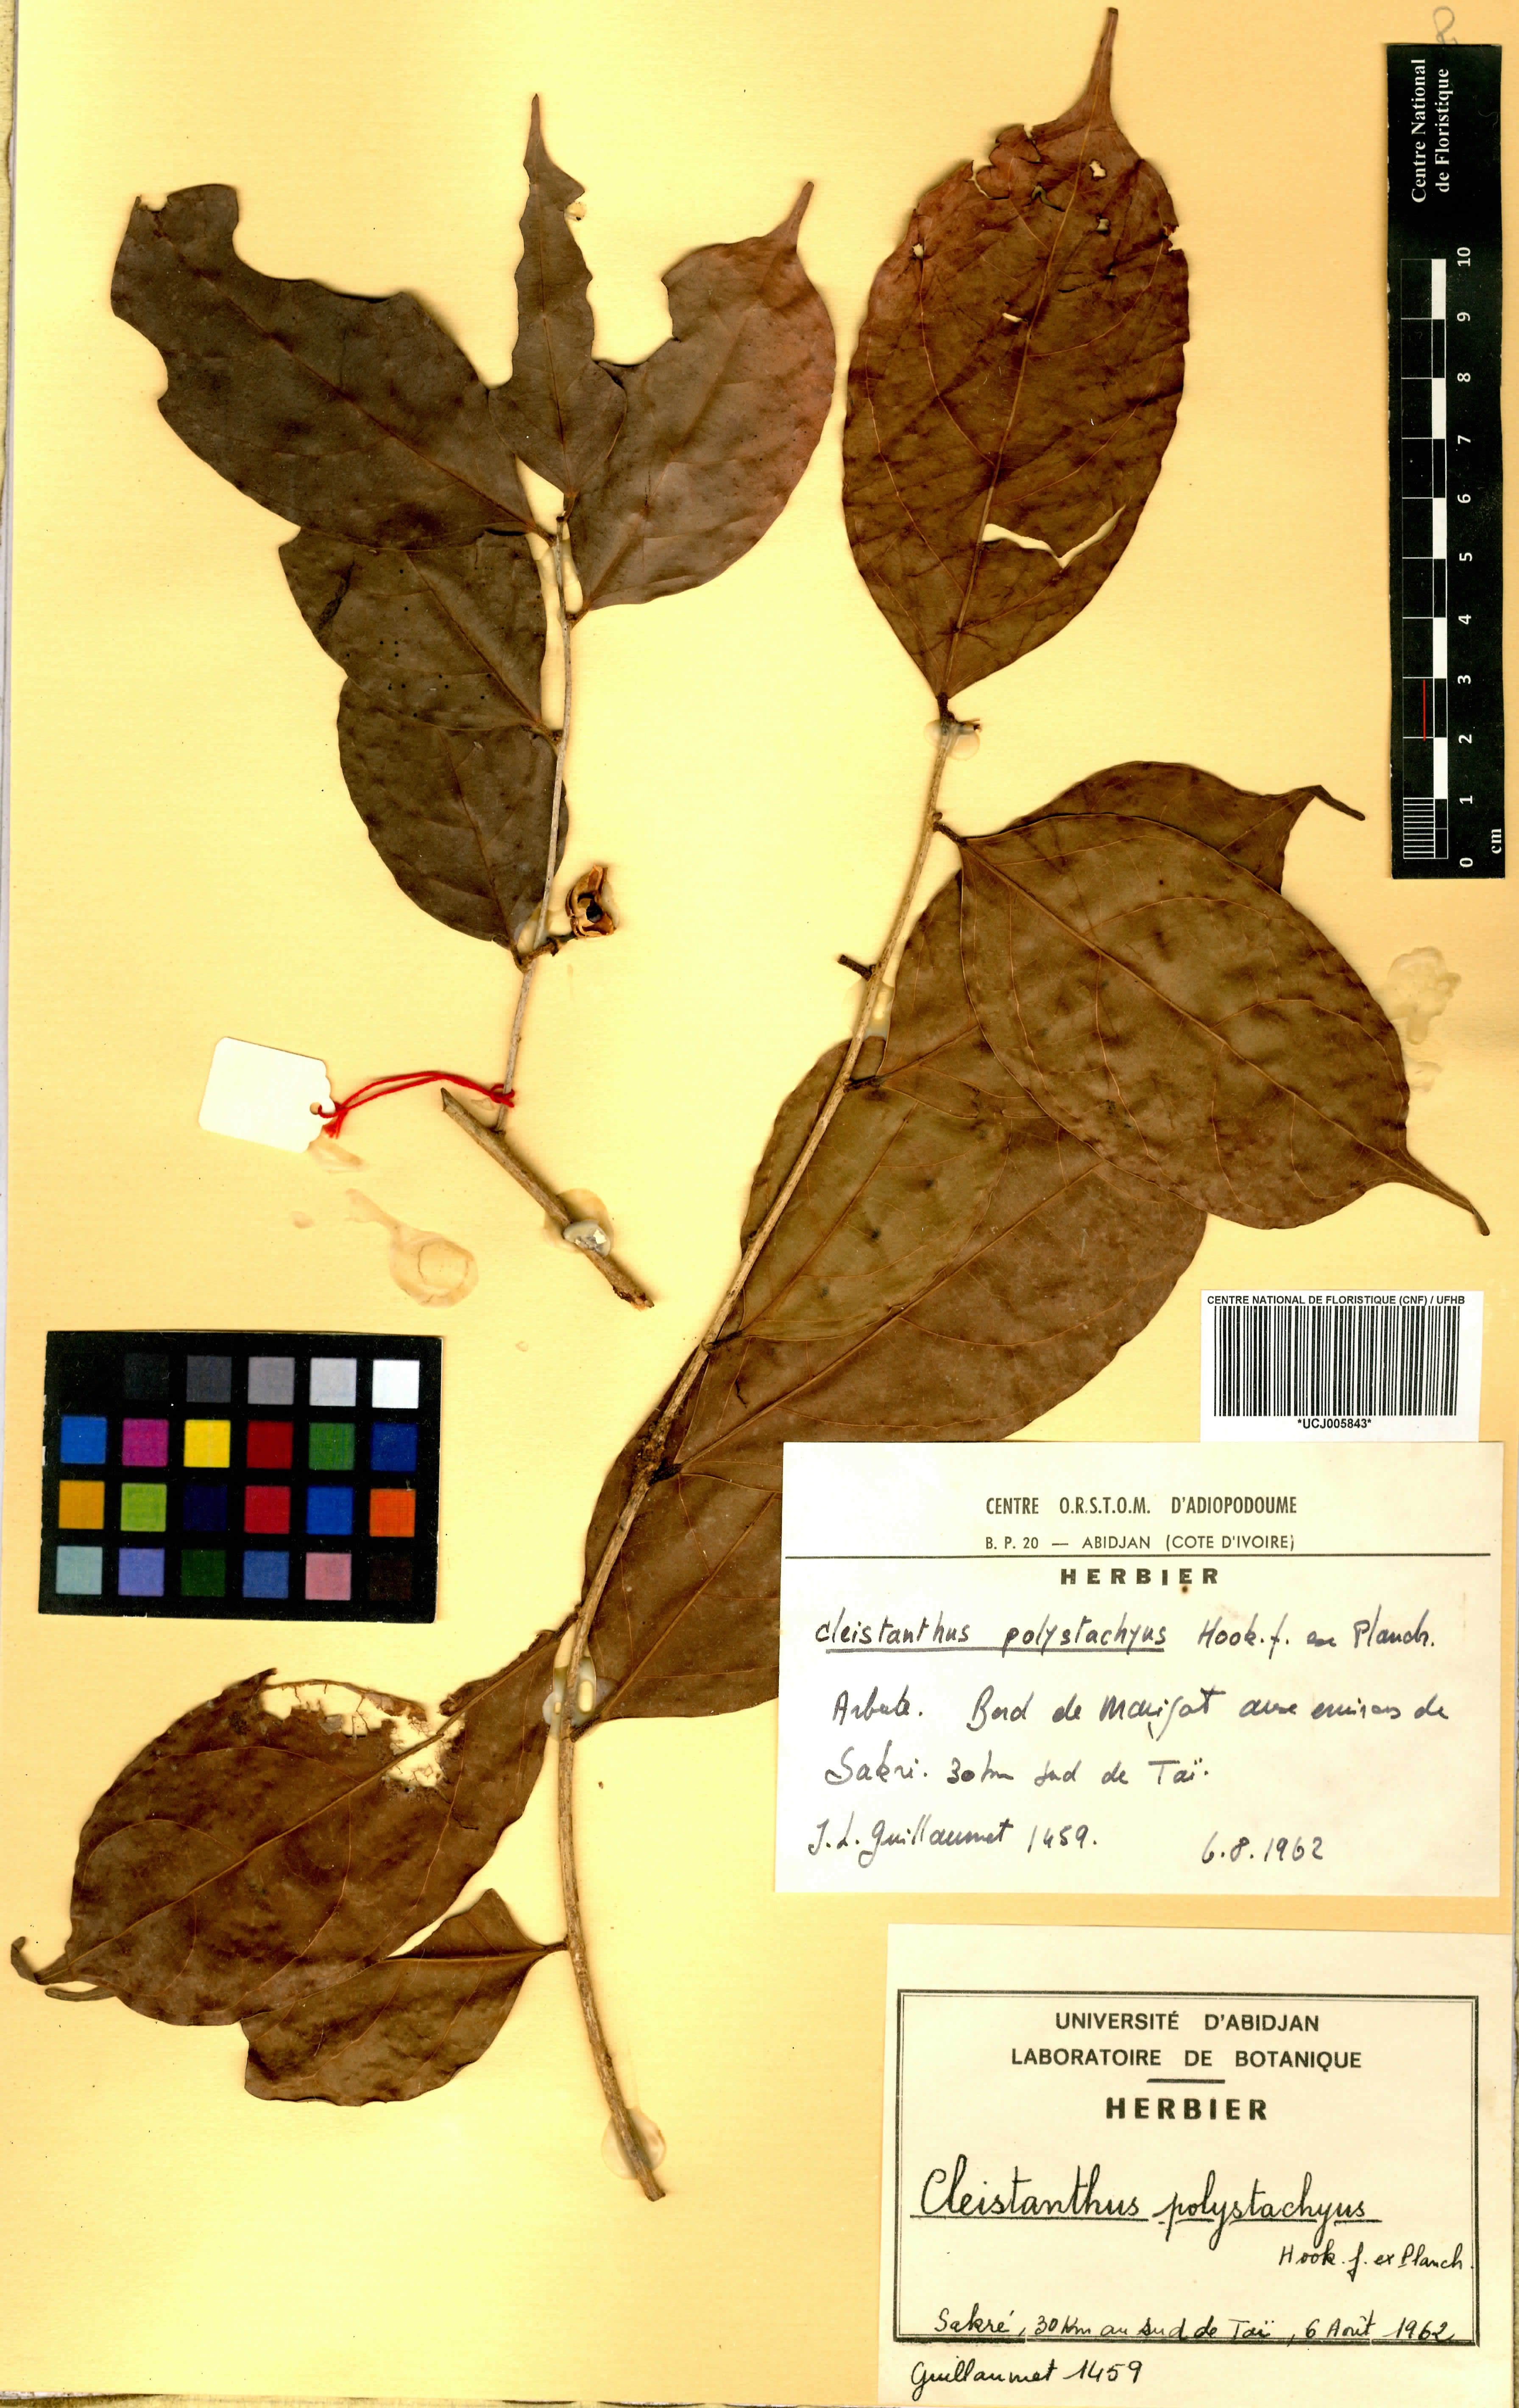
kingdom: Plantae
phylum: Tracheophyta
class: Magnoliopsida
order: Malpighiales
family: Phyllanthaceae
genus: Cleistanthus
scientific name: Cleistanthus polystachyus
